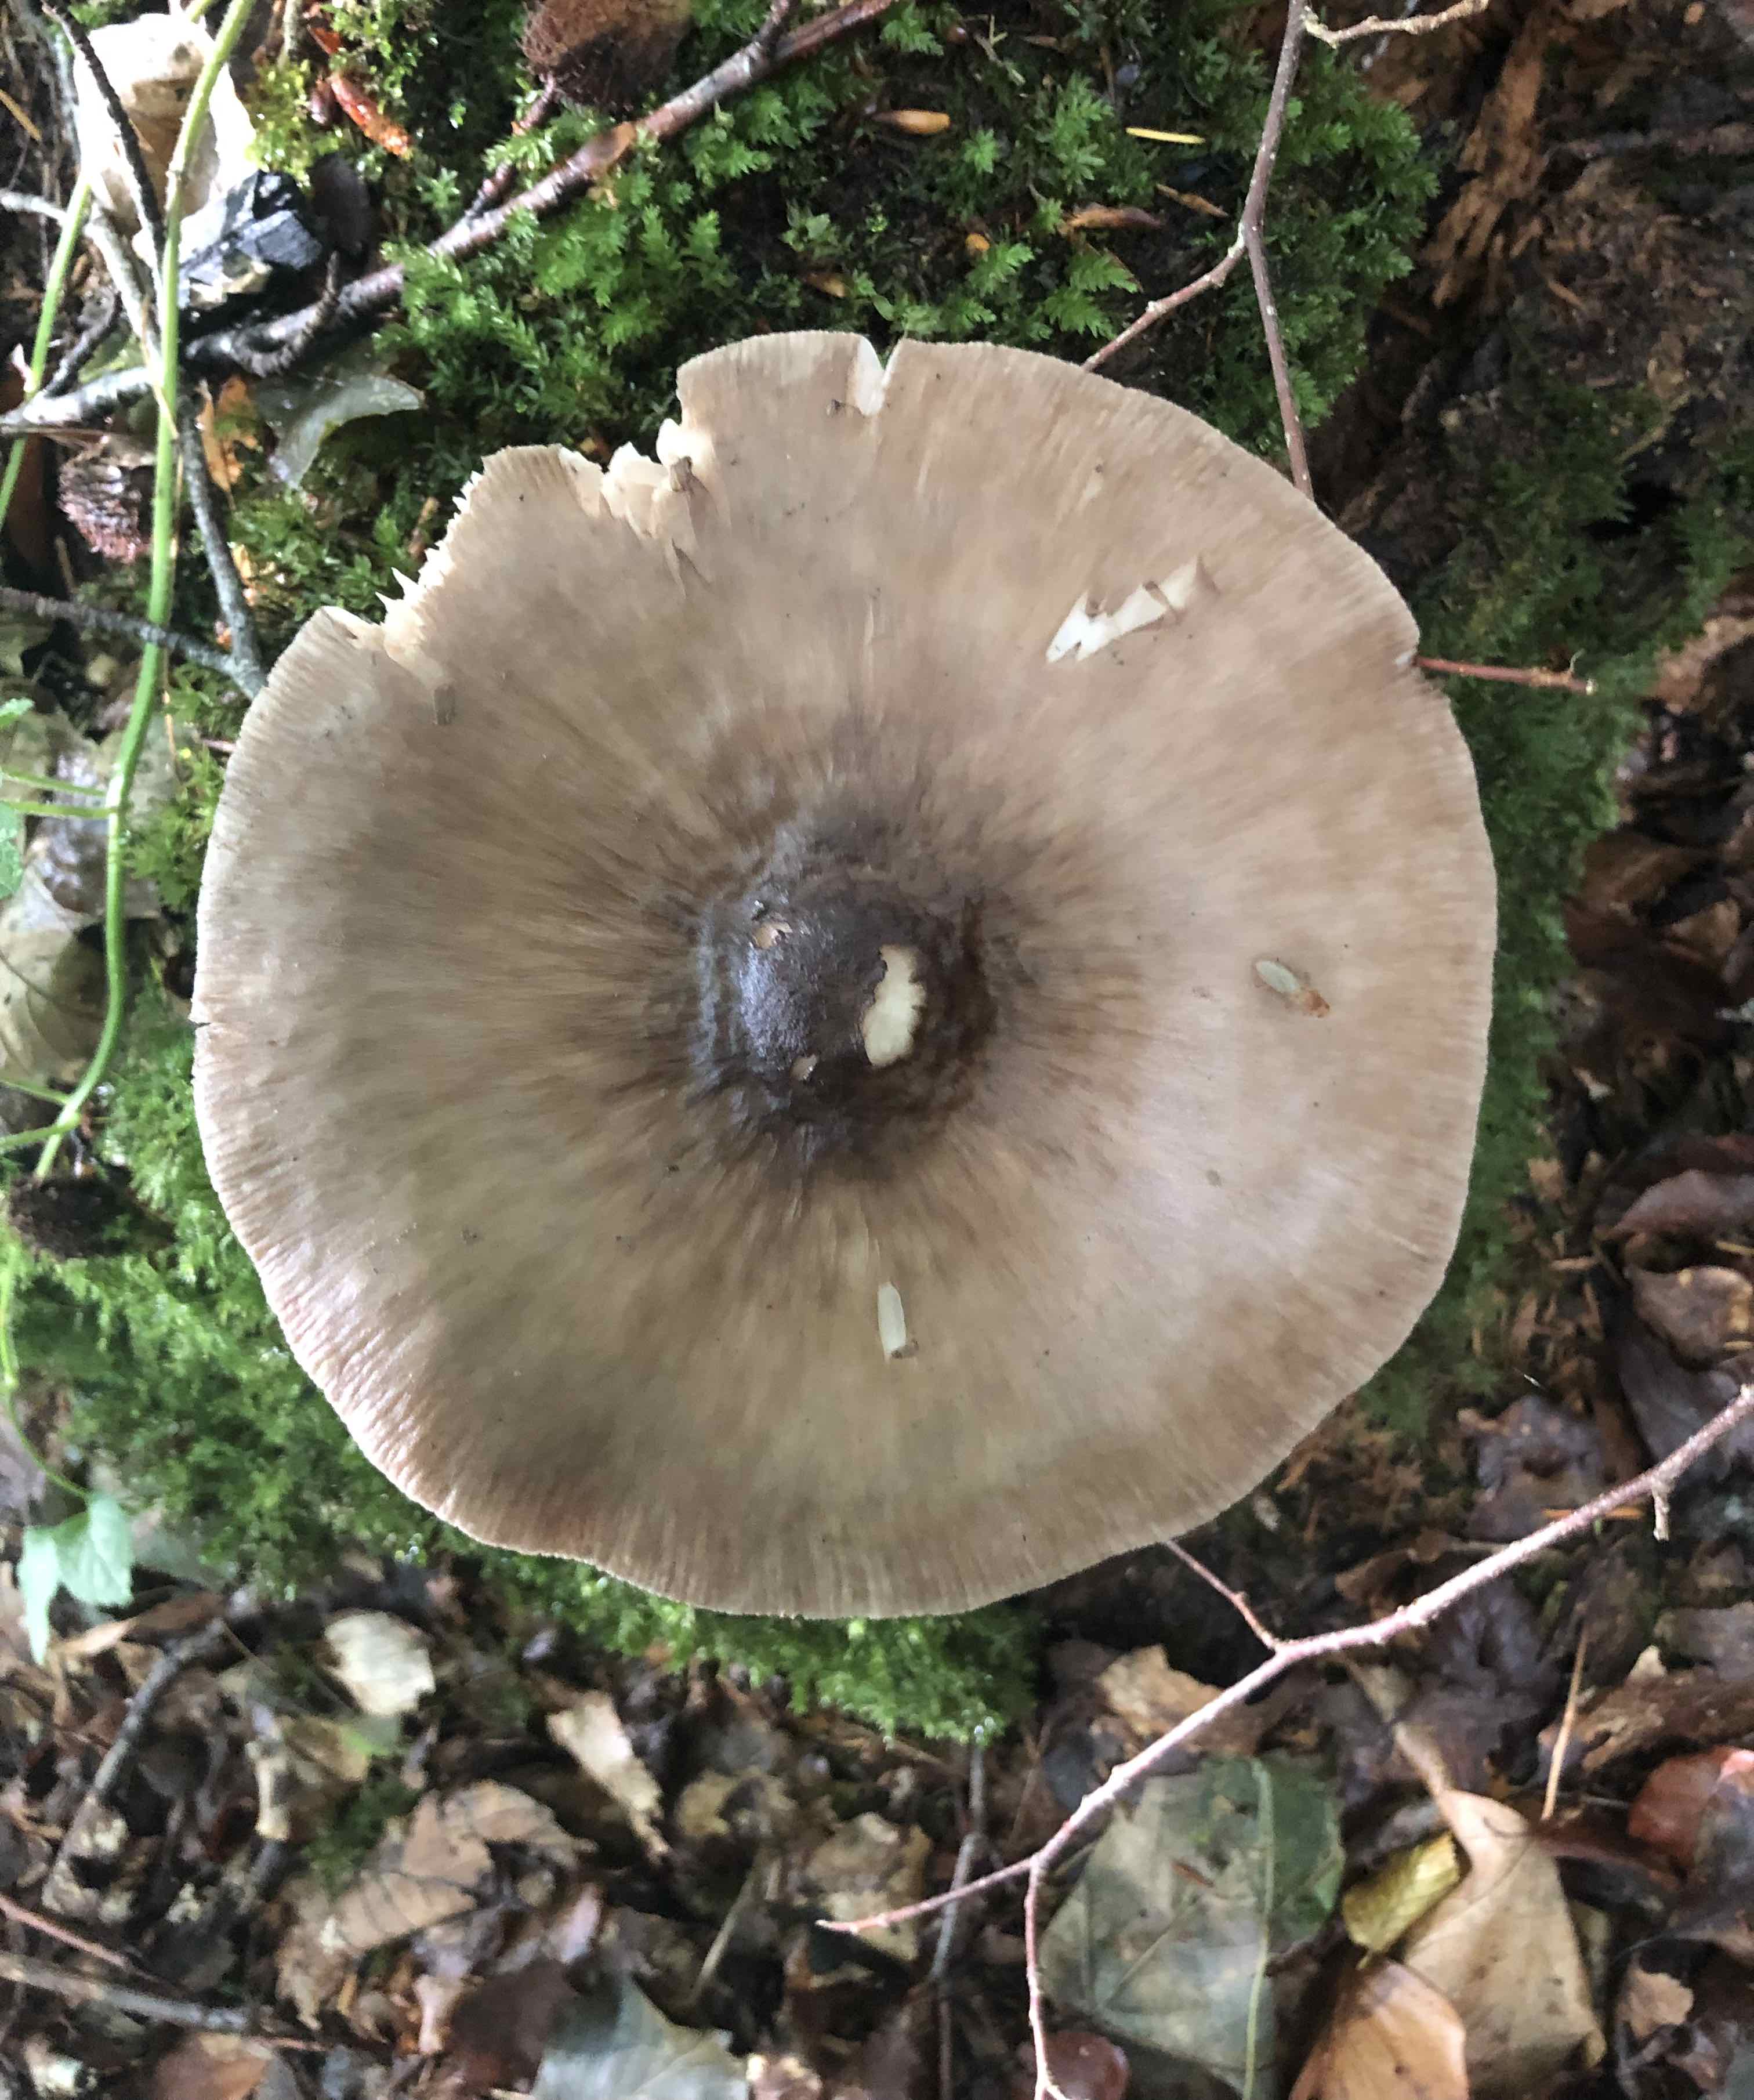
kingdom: Fungi
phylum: Basidiomycota
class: Agaricomycetes
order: Agaricales
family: Pluteaceae
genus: Pluteus
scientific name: Pluteus cervinus
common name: sodfarvet skærmhat
